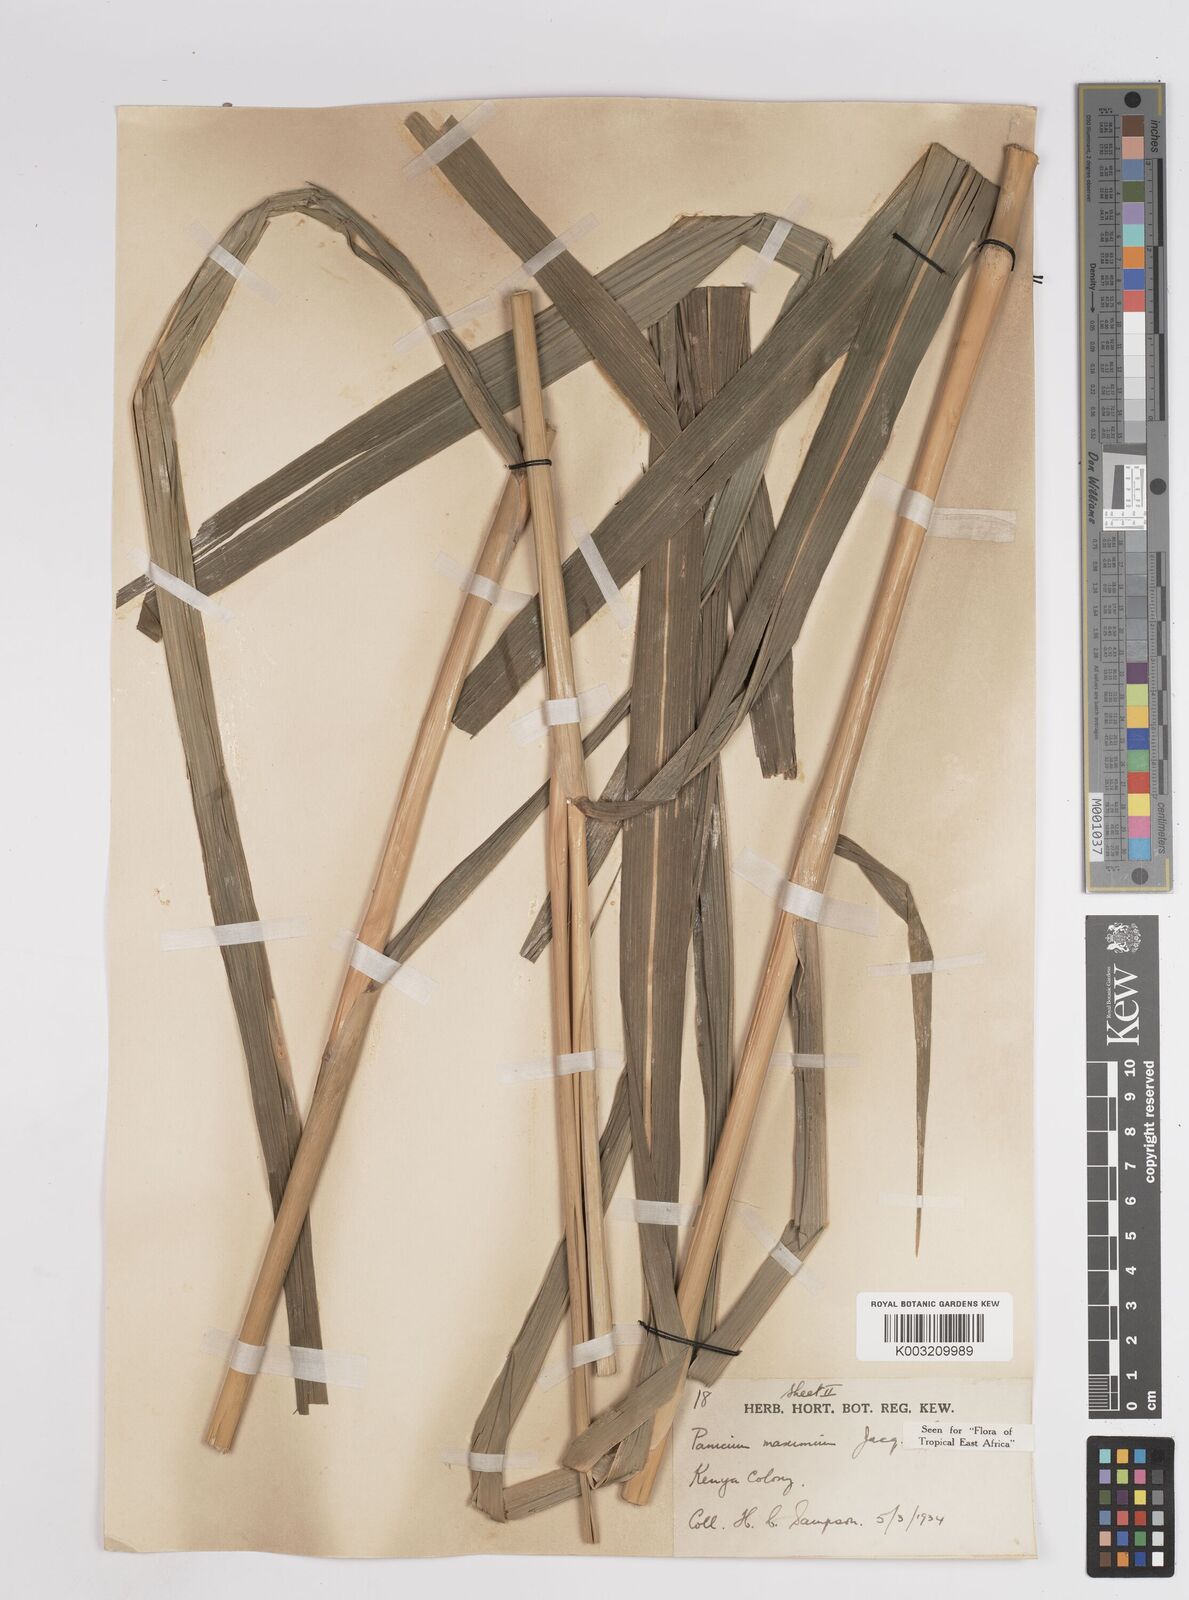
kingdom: Plantae
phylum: Tracheophyta
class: Liliopsida
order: Poales
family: Poaceae
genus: Megathyrsus
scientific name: Megathyrsus maximus
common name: Guineagrass
